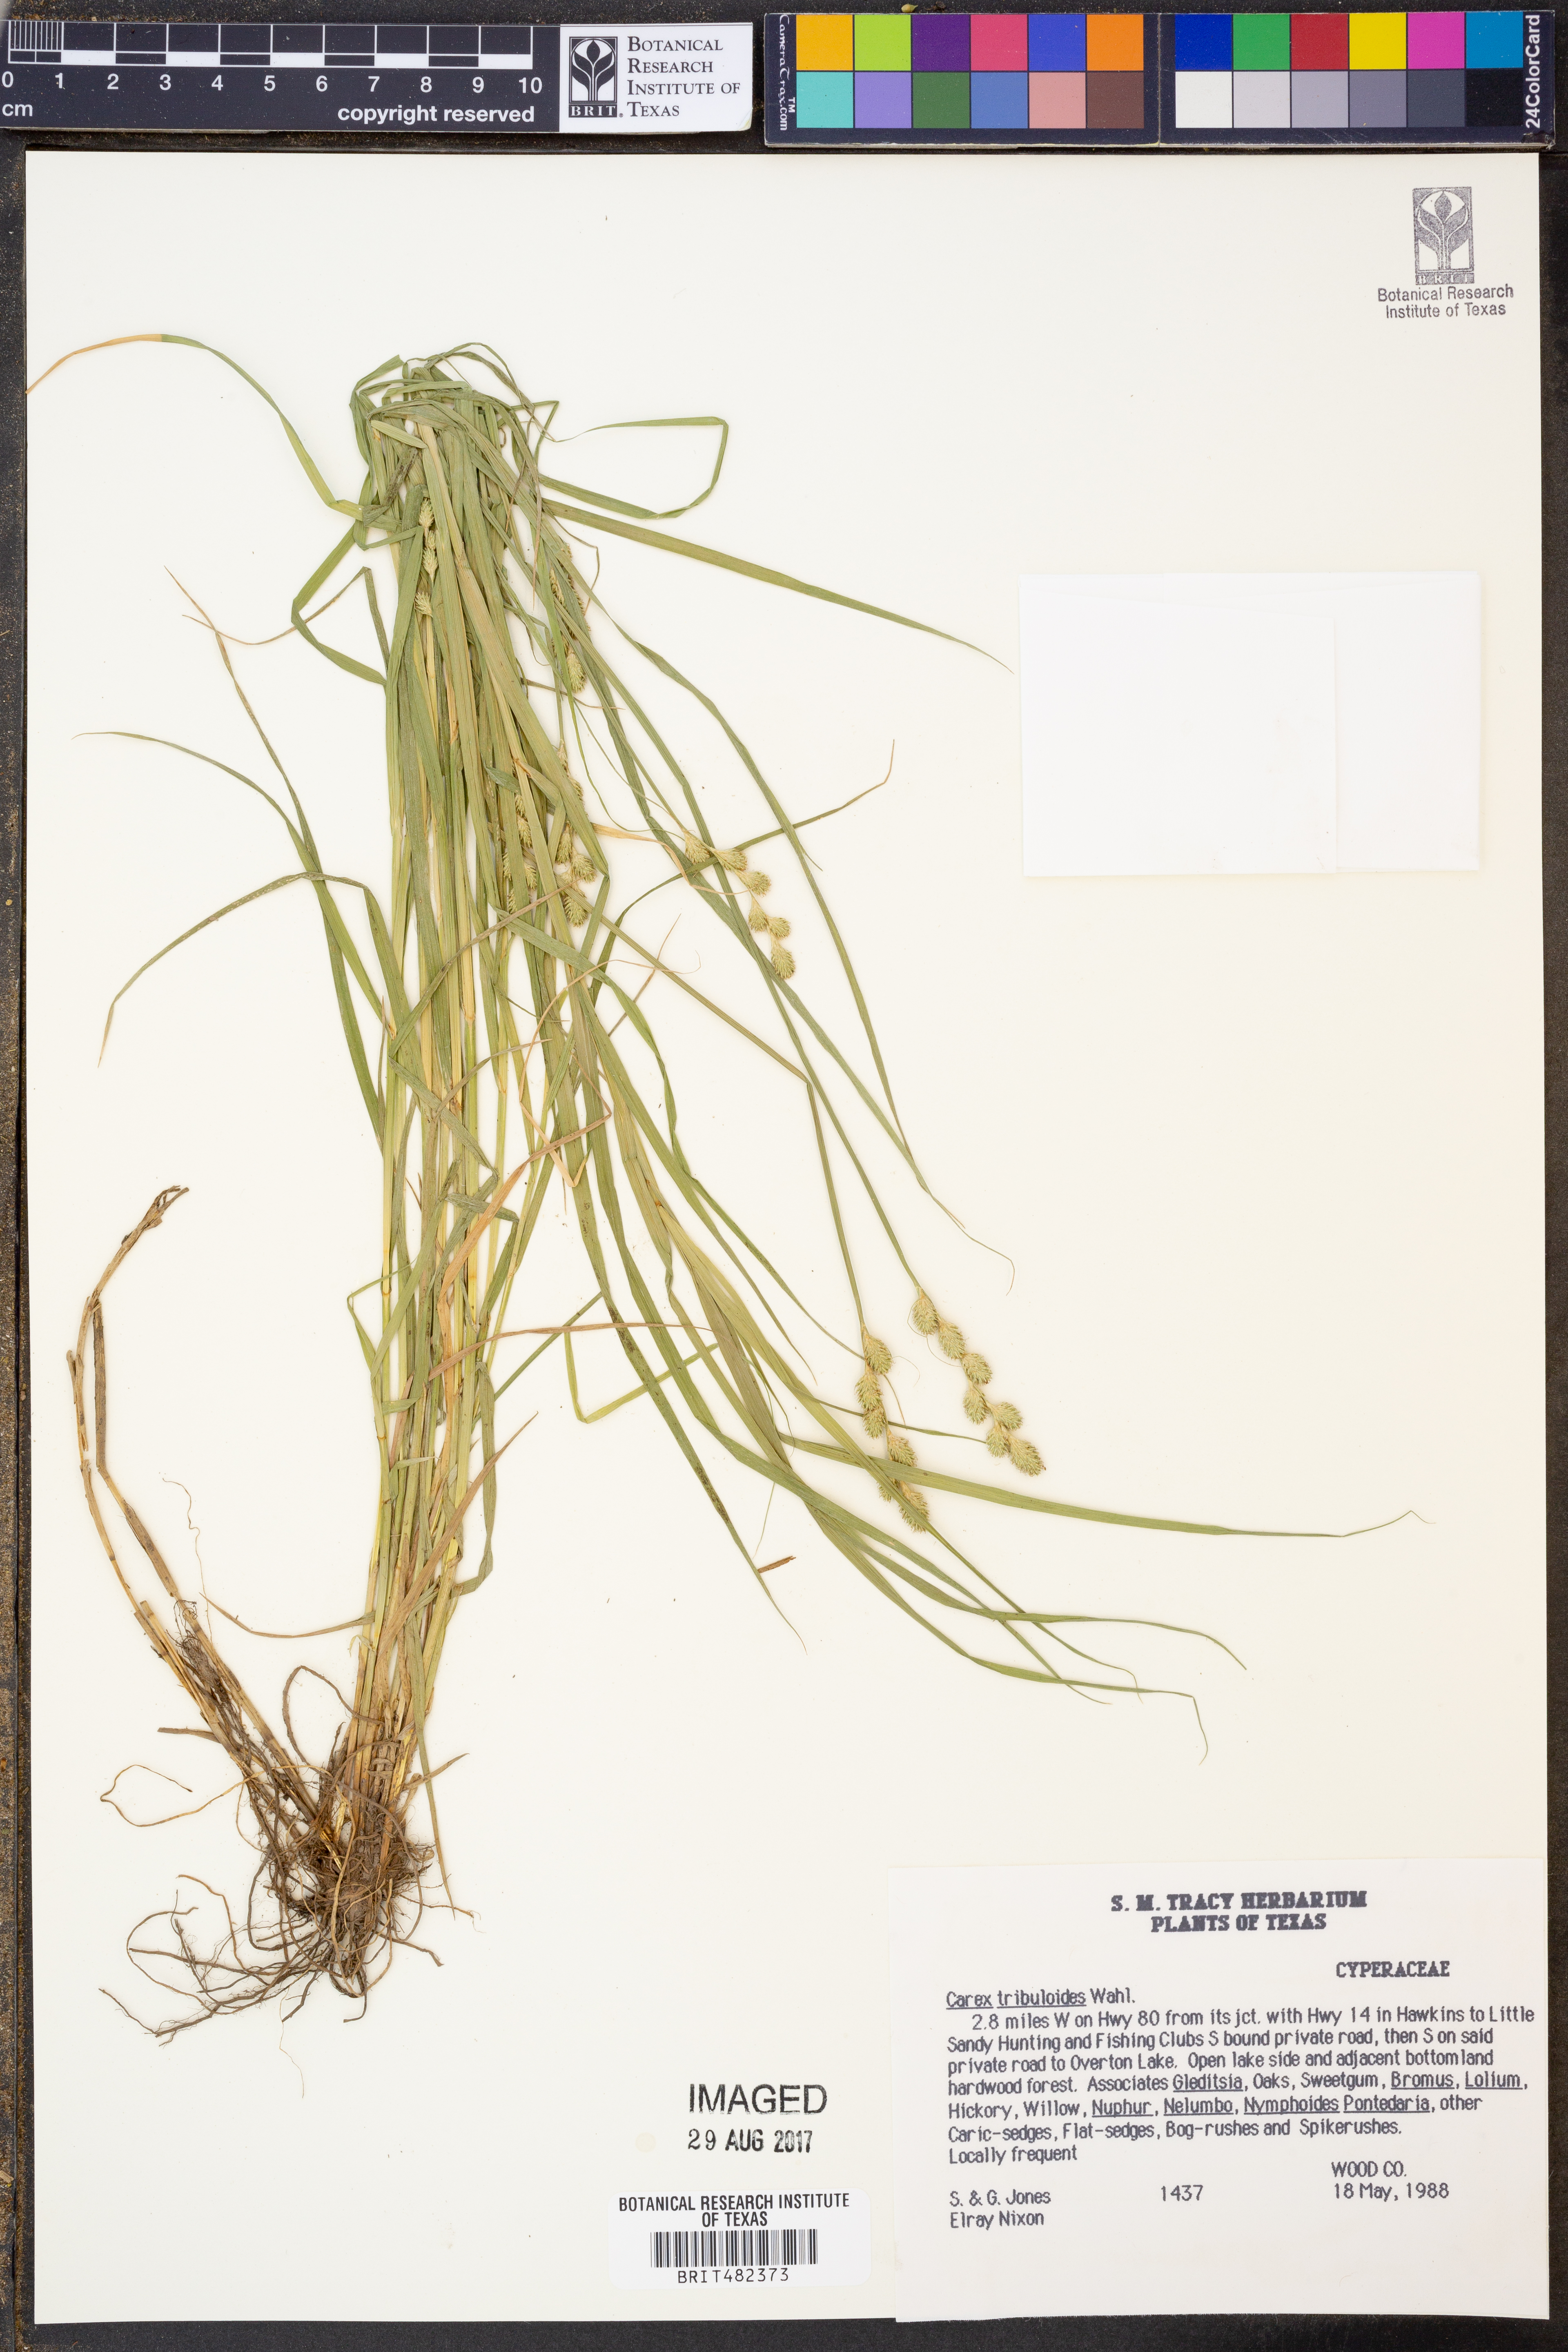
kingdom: Plantae
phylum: Tracheophyta
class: Liliopsida
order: Poales
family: Cyperaceae
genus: Carex
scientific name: Carex tribuloides
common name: Blunt broom sedge
